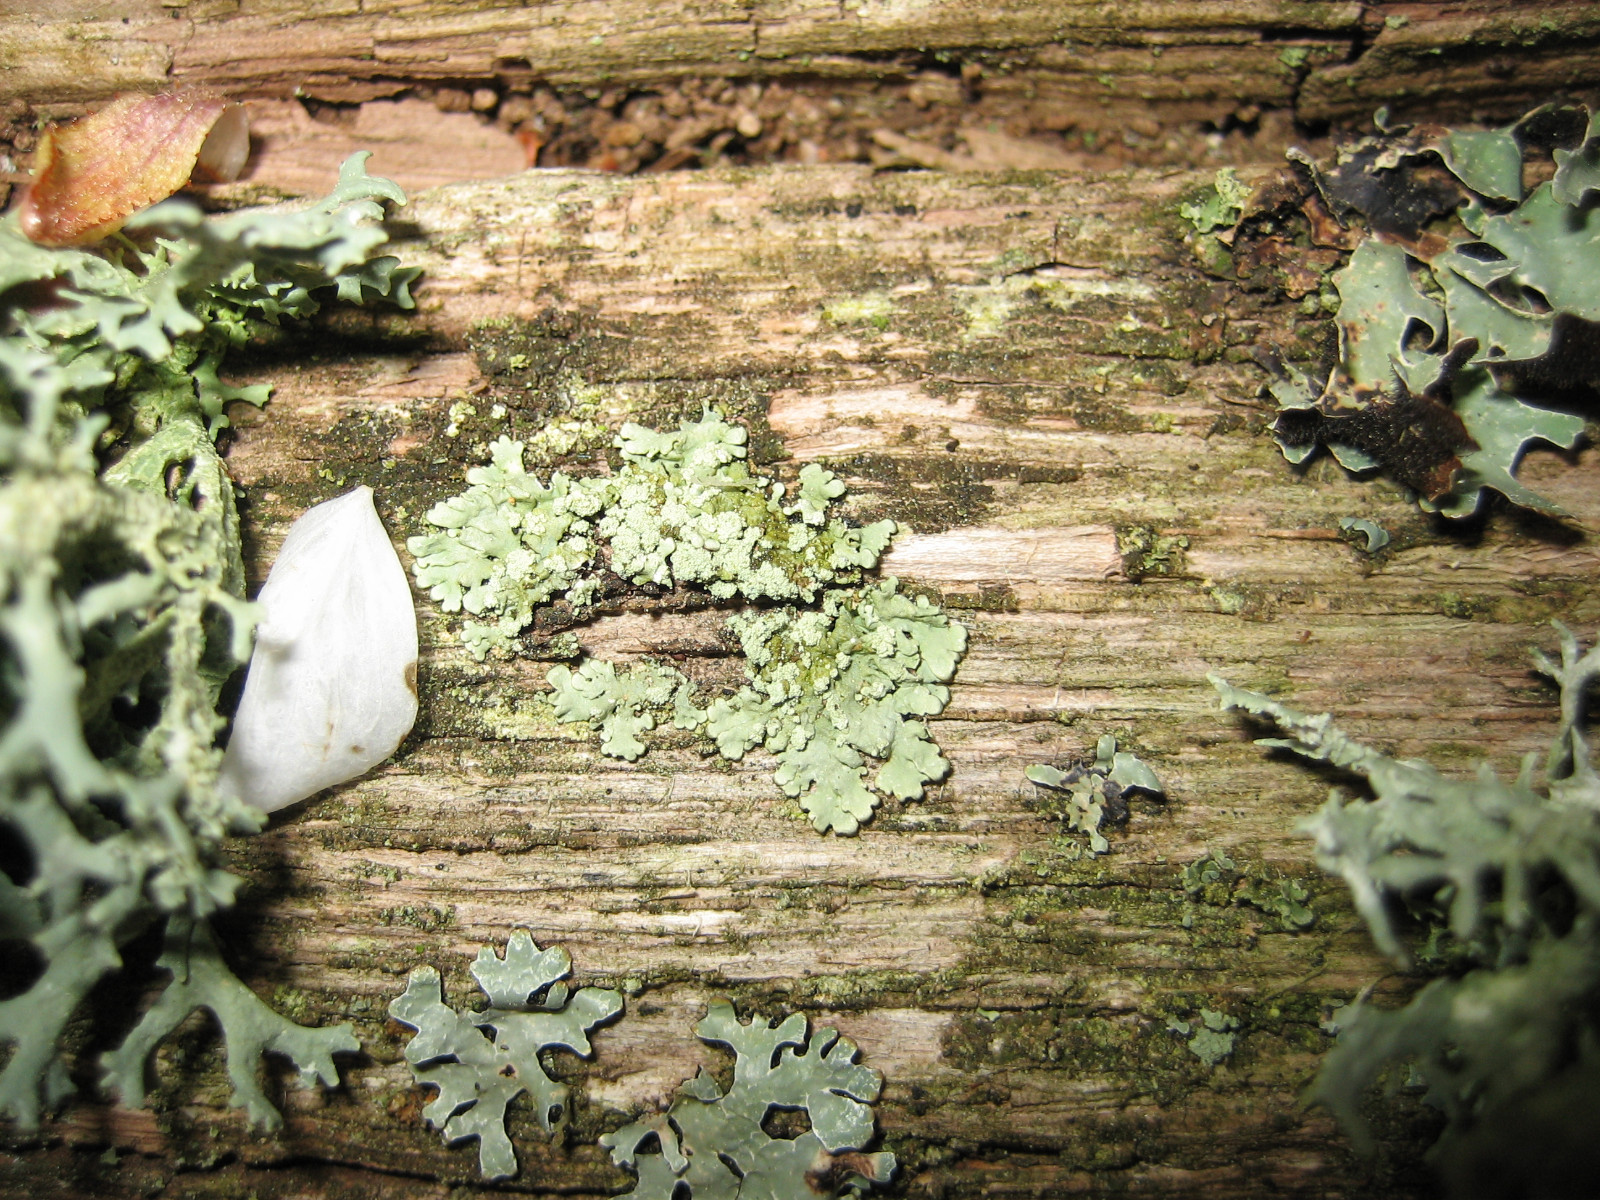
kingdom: Fungi
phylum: Ascomycota
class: Lecanoromycetes
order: Lecanorales
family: Parmeliaceae
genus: Parmeliopsis
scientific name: Parmeliopsis ambigua
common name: gul stolpelav
